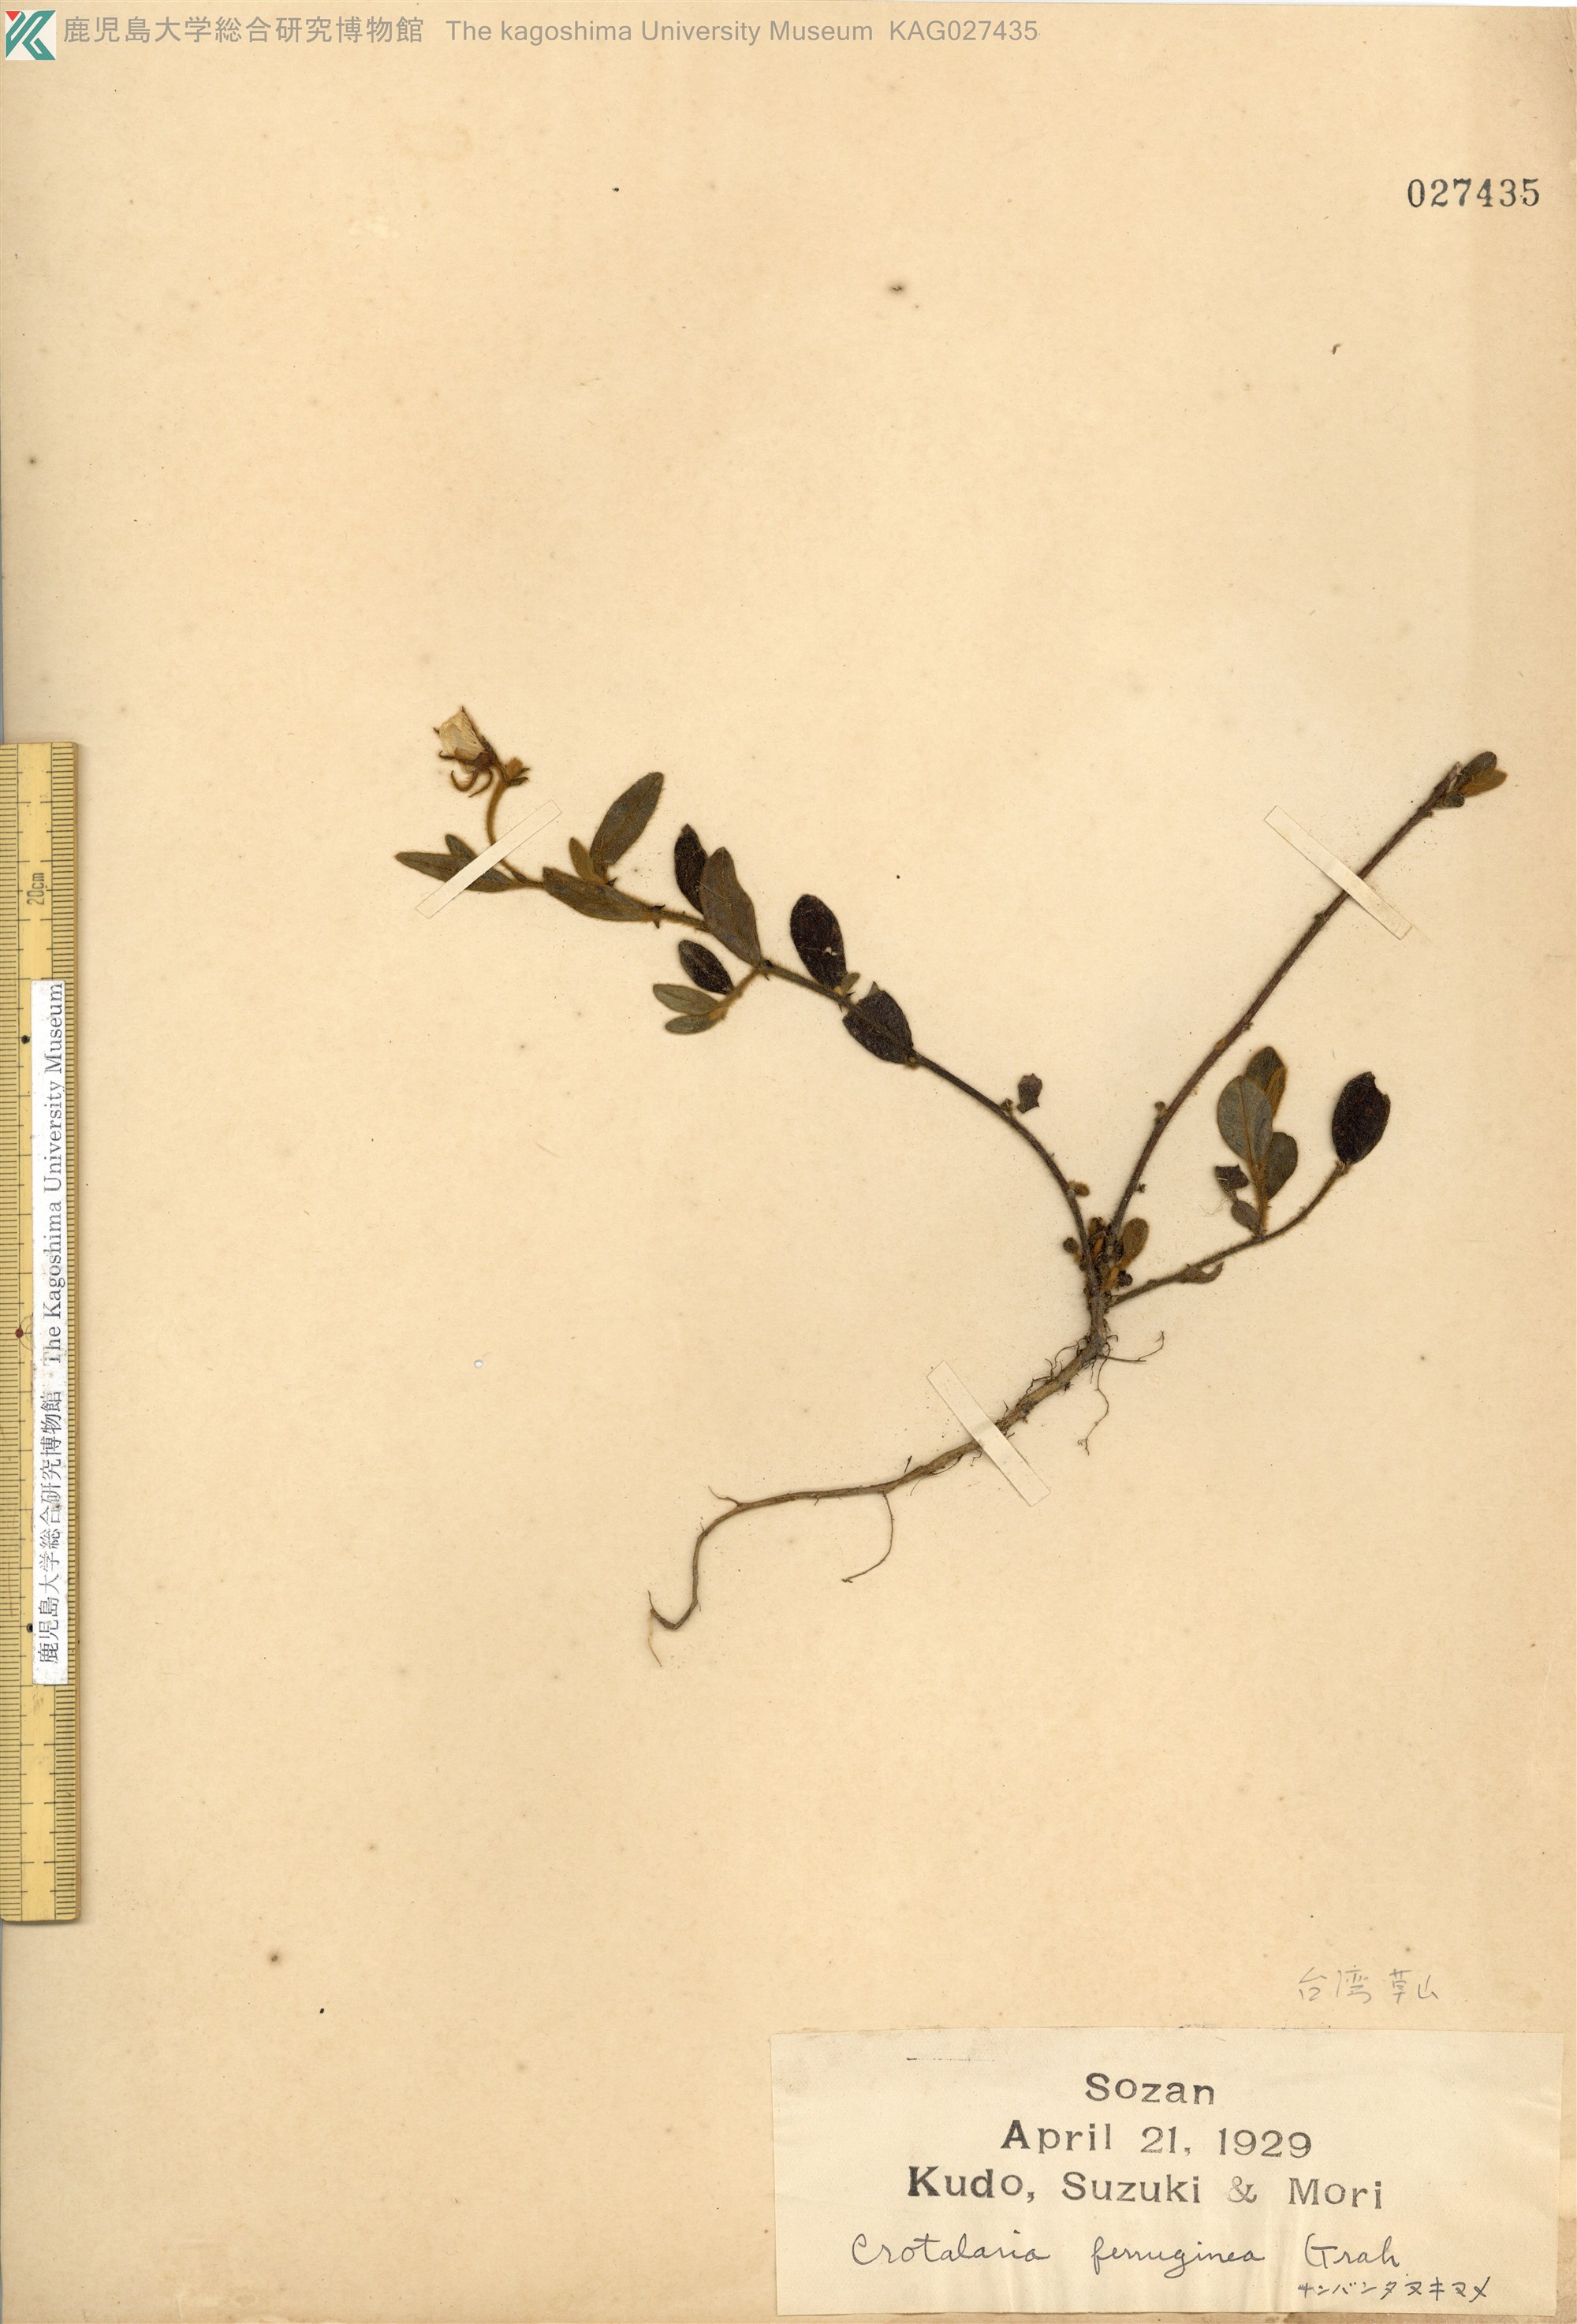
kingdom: Plantae
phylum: Tracheophyta
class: Magnoliopsida
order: Fabales
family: Fabaceae
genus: Crotalaria
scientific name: Crotalaria lejoloba
